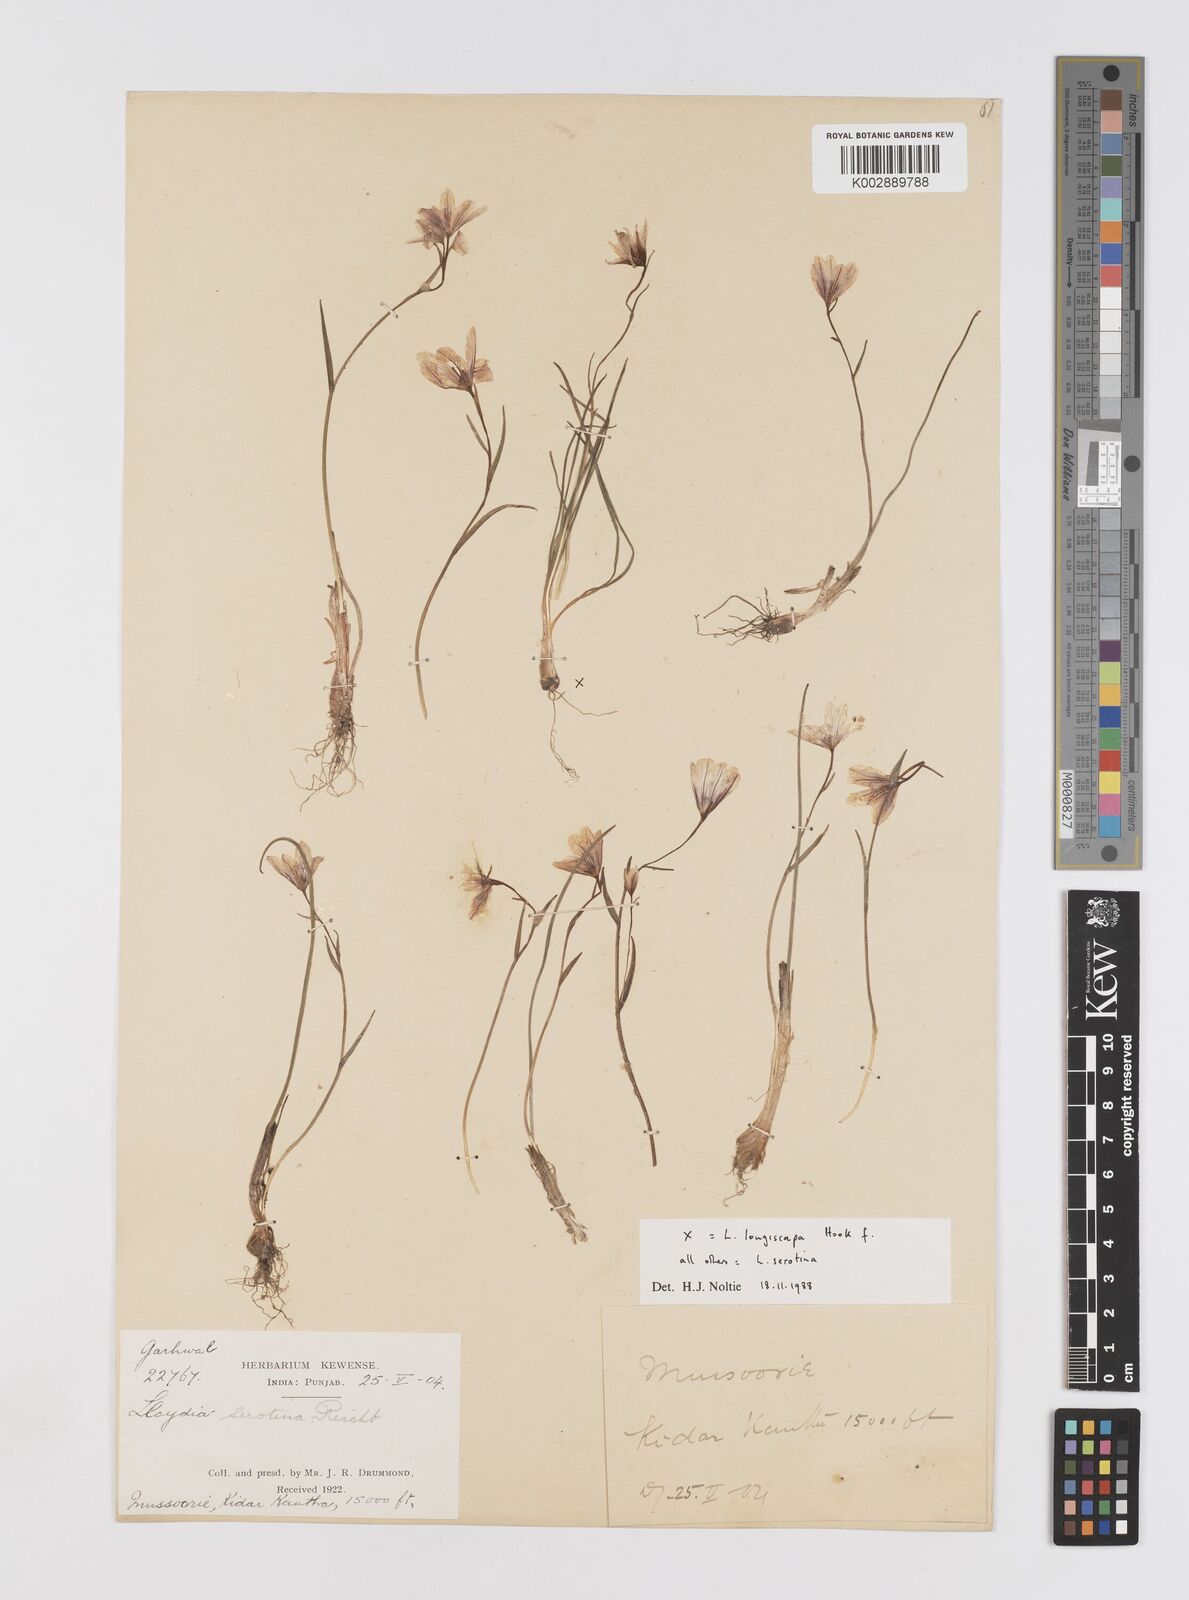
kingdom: Plantae
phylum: Tracheophyta
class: Liliopsida
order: Liliales
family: Liliaceae
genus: Gagea
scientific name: Gagea serotina
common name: Snowdon lily
